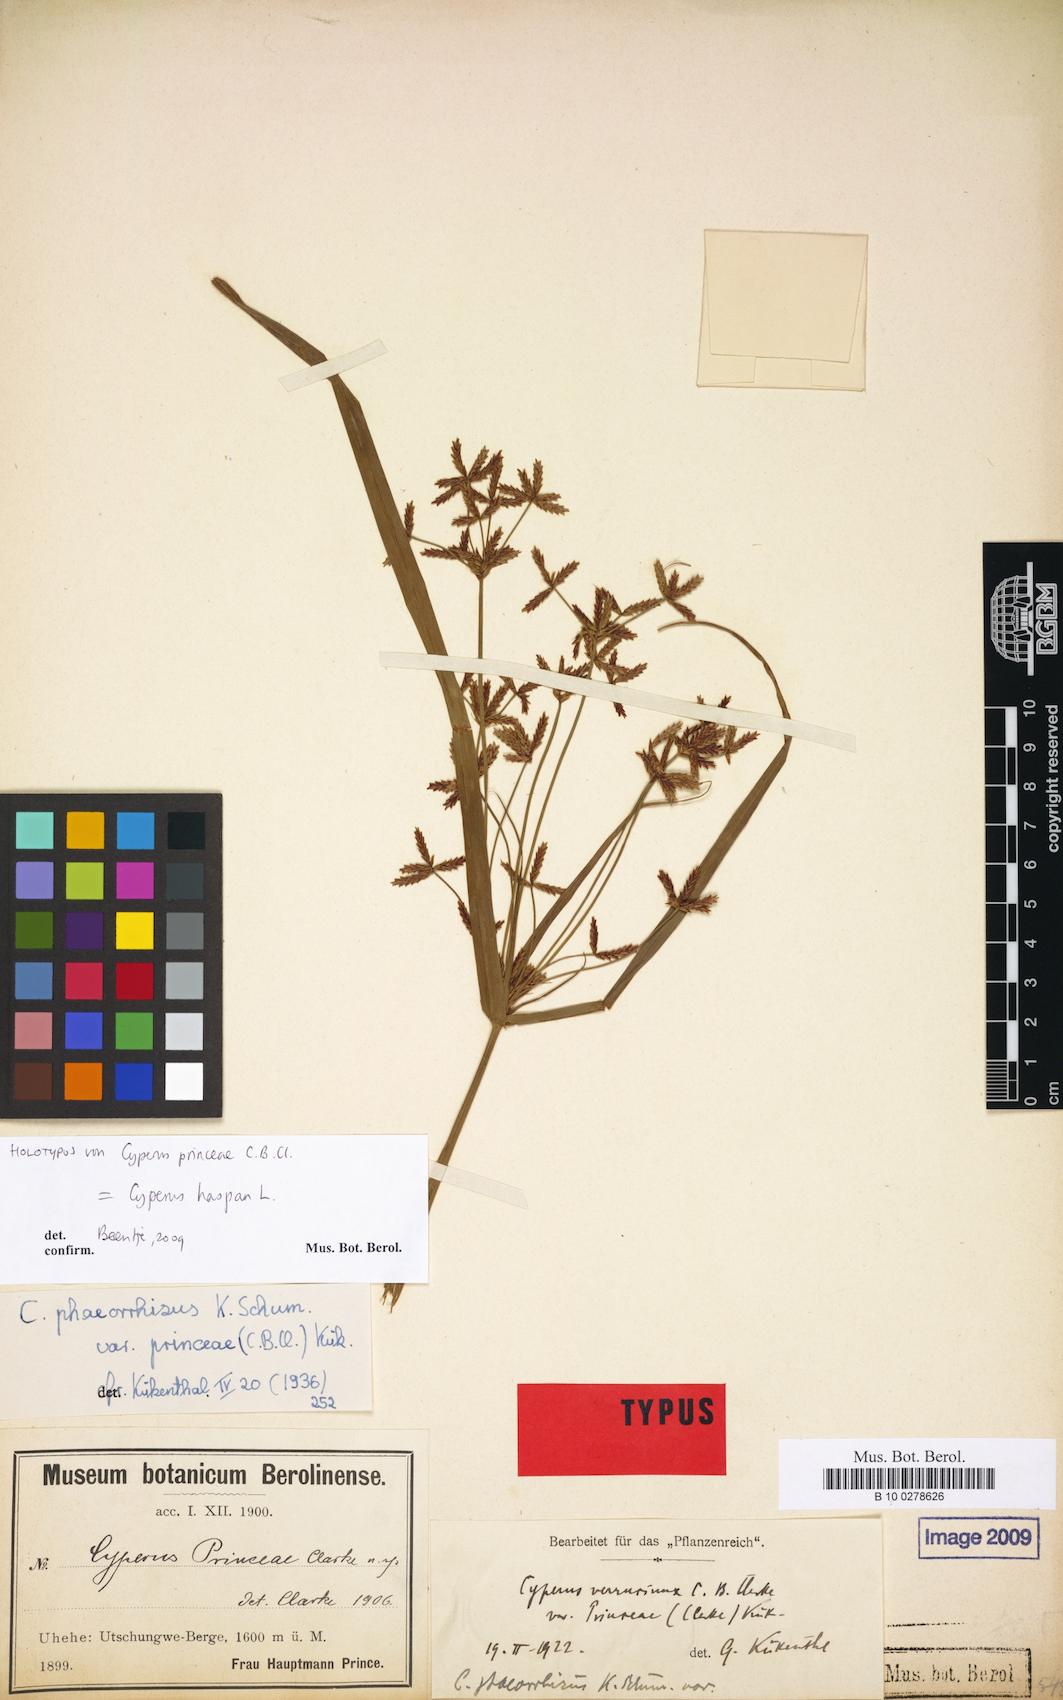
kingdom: Plantae
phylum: Tracheophyta
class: Liliopsida
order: Poales
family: Cyperaceae
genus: Cyperus
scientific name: Cyperus haspan
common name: Haspan flatsedge
